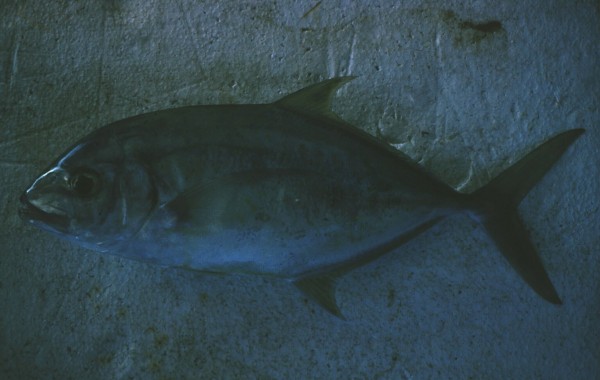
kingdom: Animalia
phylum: Chordata
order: Perciformes
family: Carangidae
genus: Carangoides
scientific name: Carangoides fulvoguttatus
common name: Yellowspotted trevally
